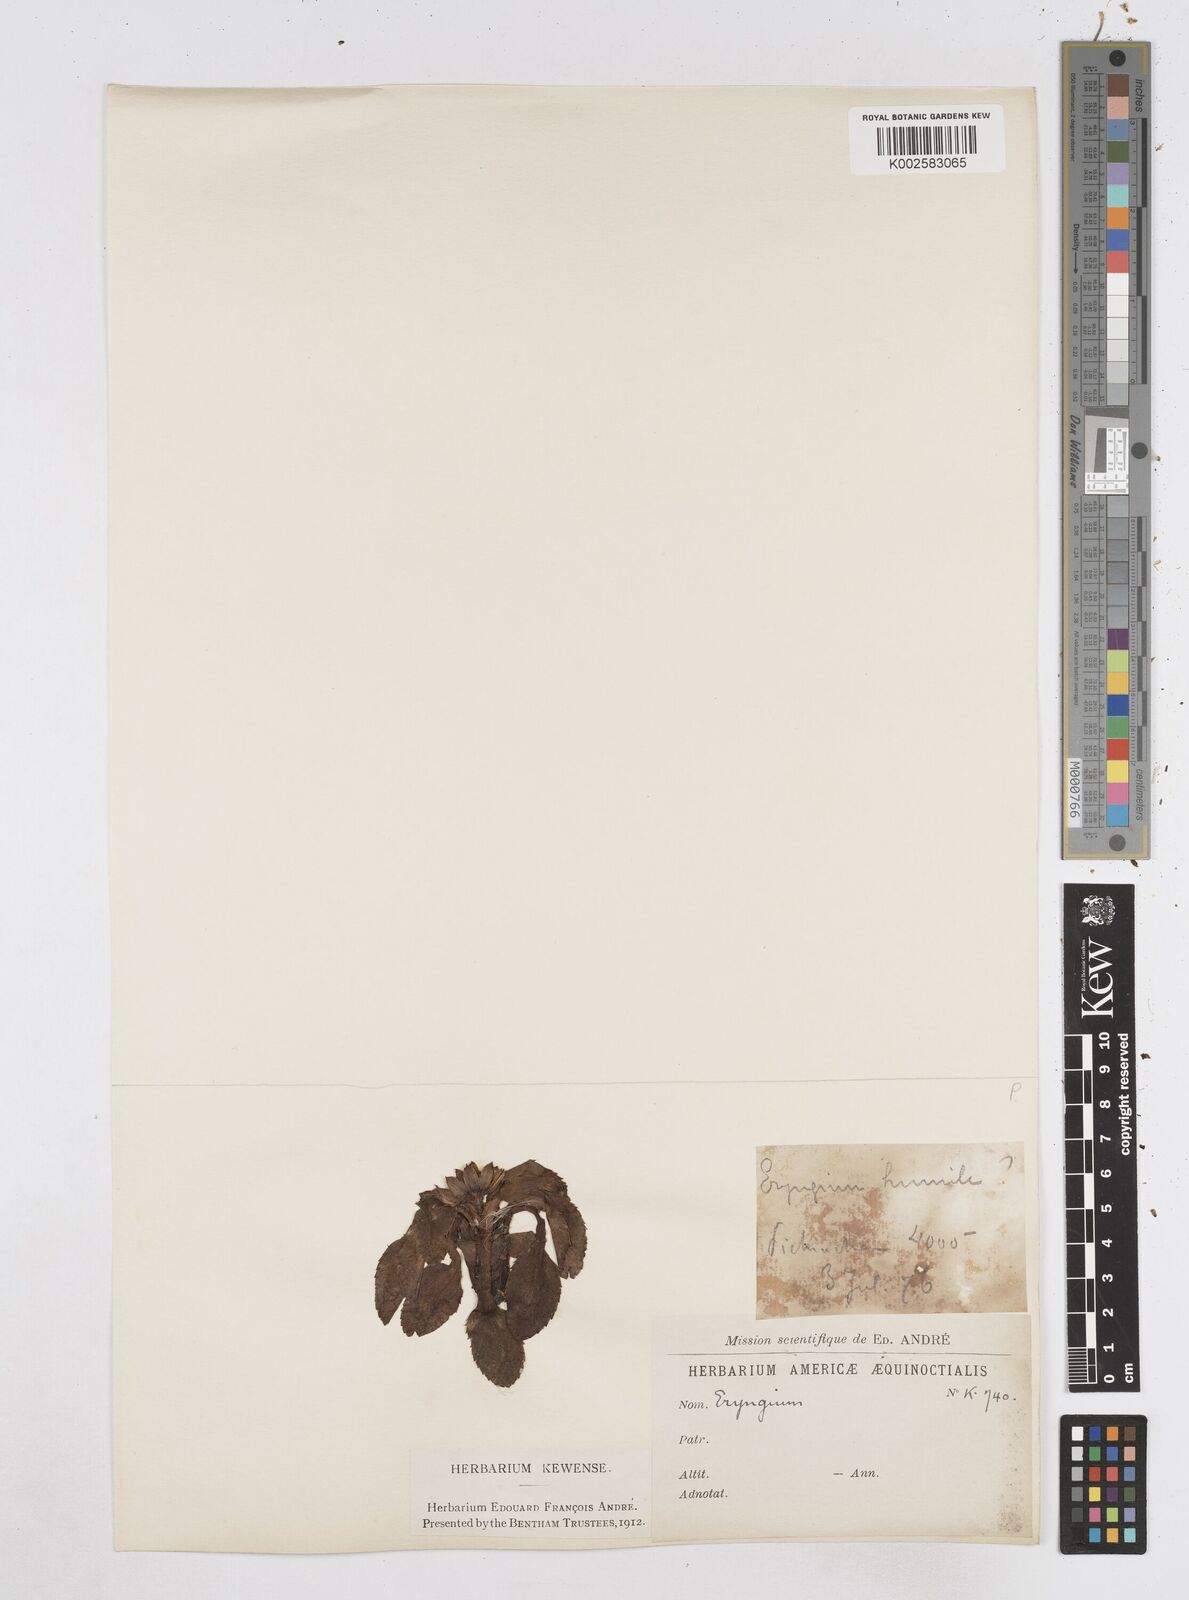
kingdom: Plantae
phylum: Tracheophyta
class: Magnoliopsida
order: Apiales
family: Apiaceae
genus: Eryngium
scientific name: Eryngium humile
